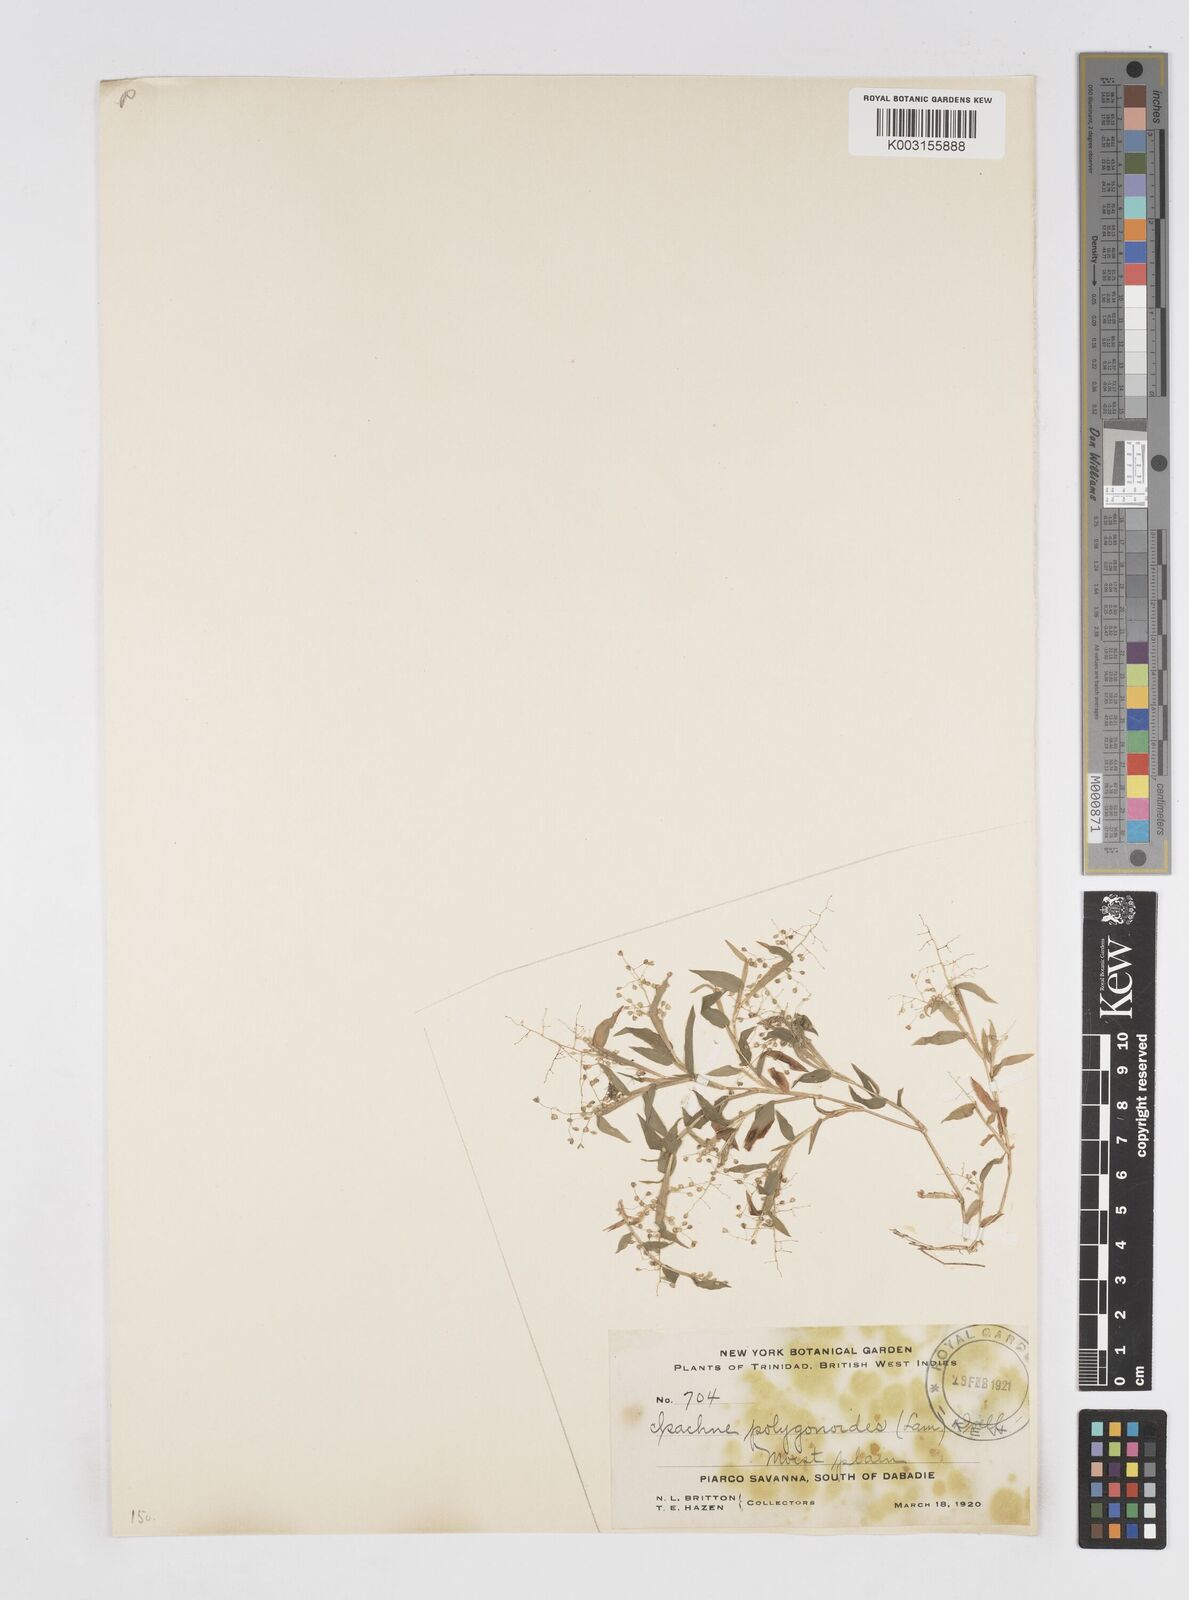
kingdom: Plantae
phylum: Tracheophyta
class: Liliopsida
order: Poales
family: Poaceae
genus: Isachne
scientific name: Isachne polygonoides
